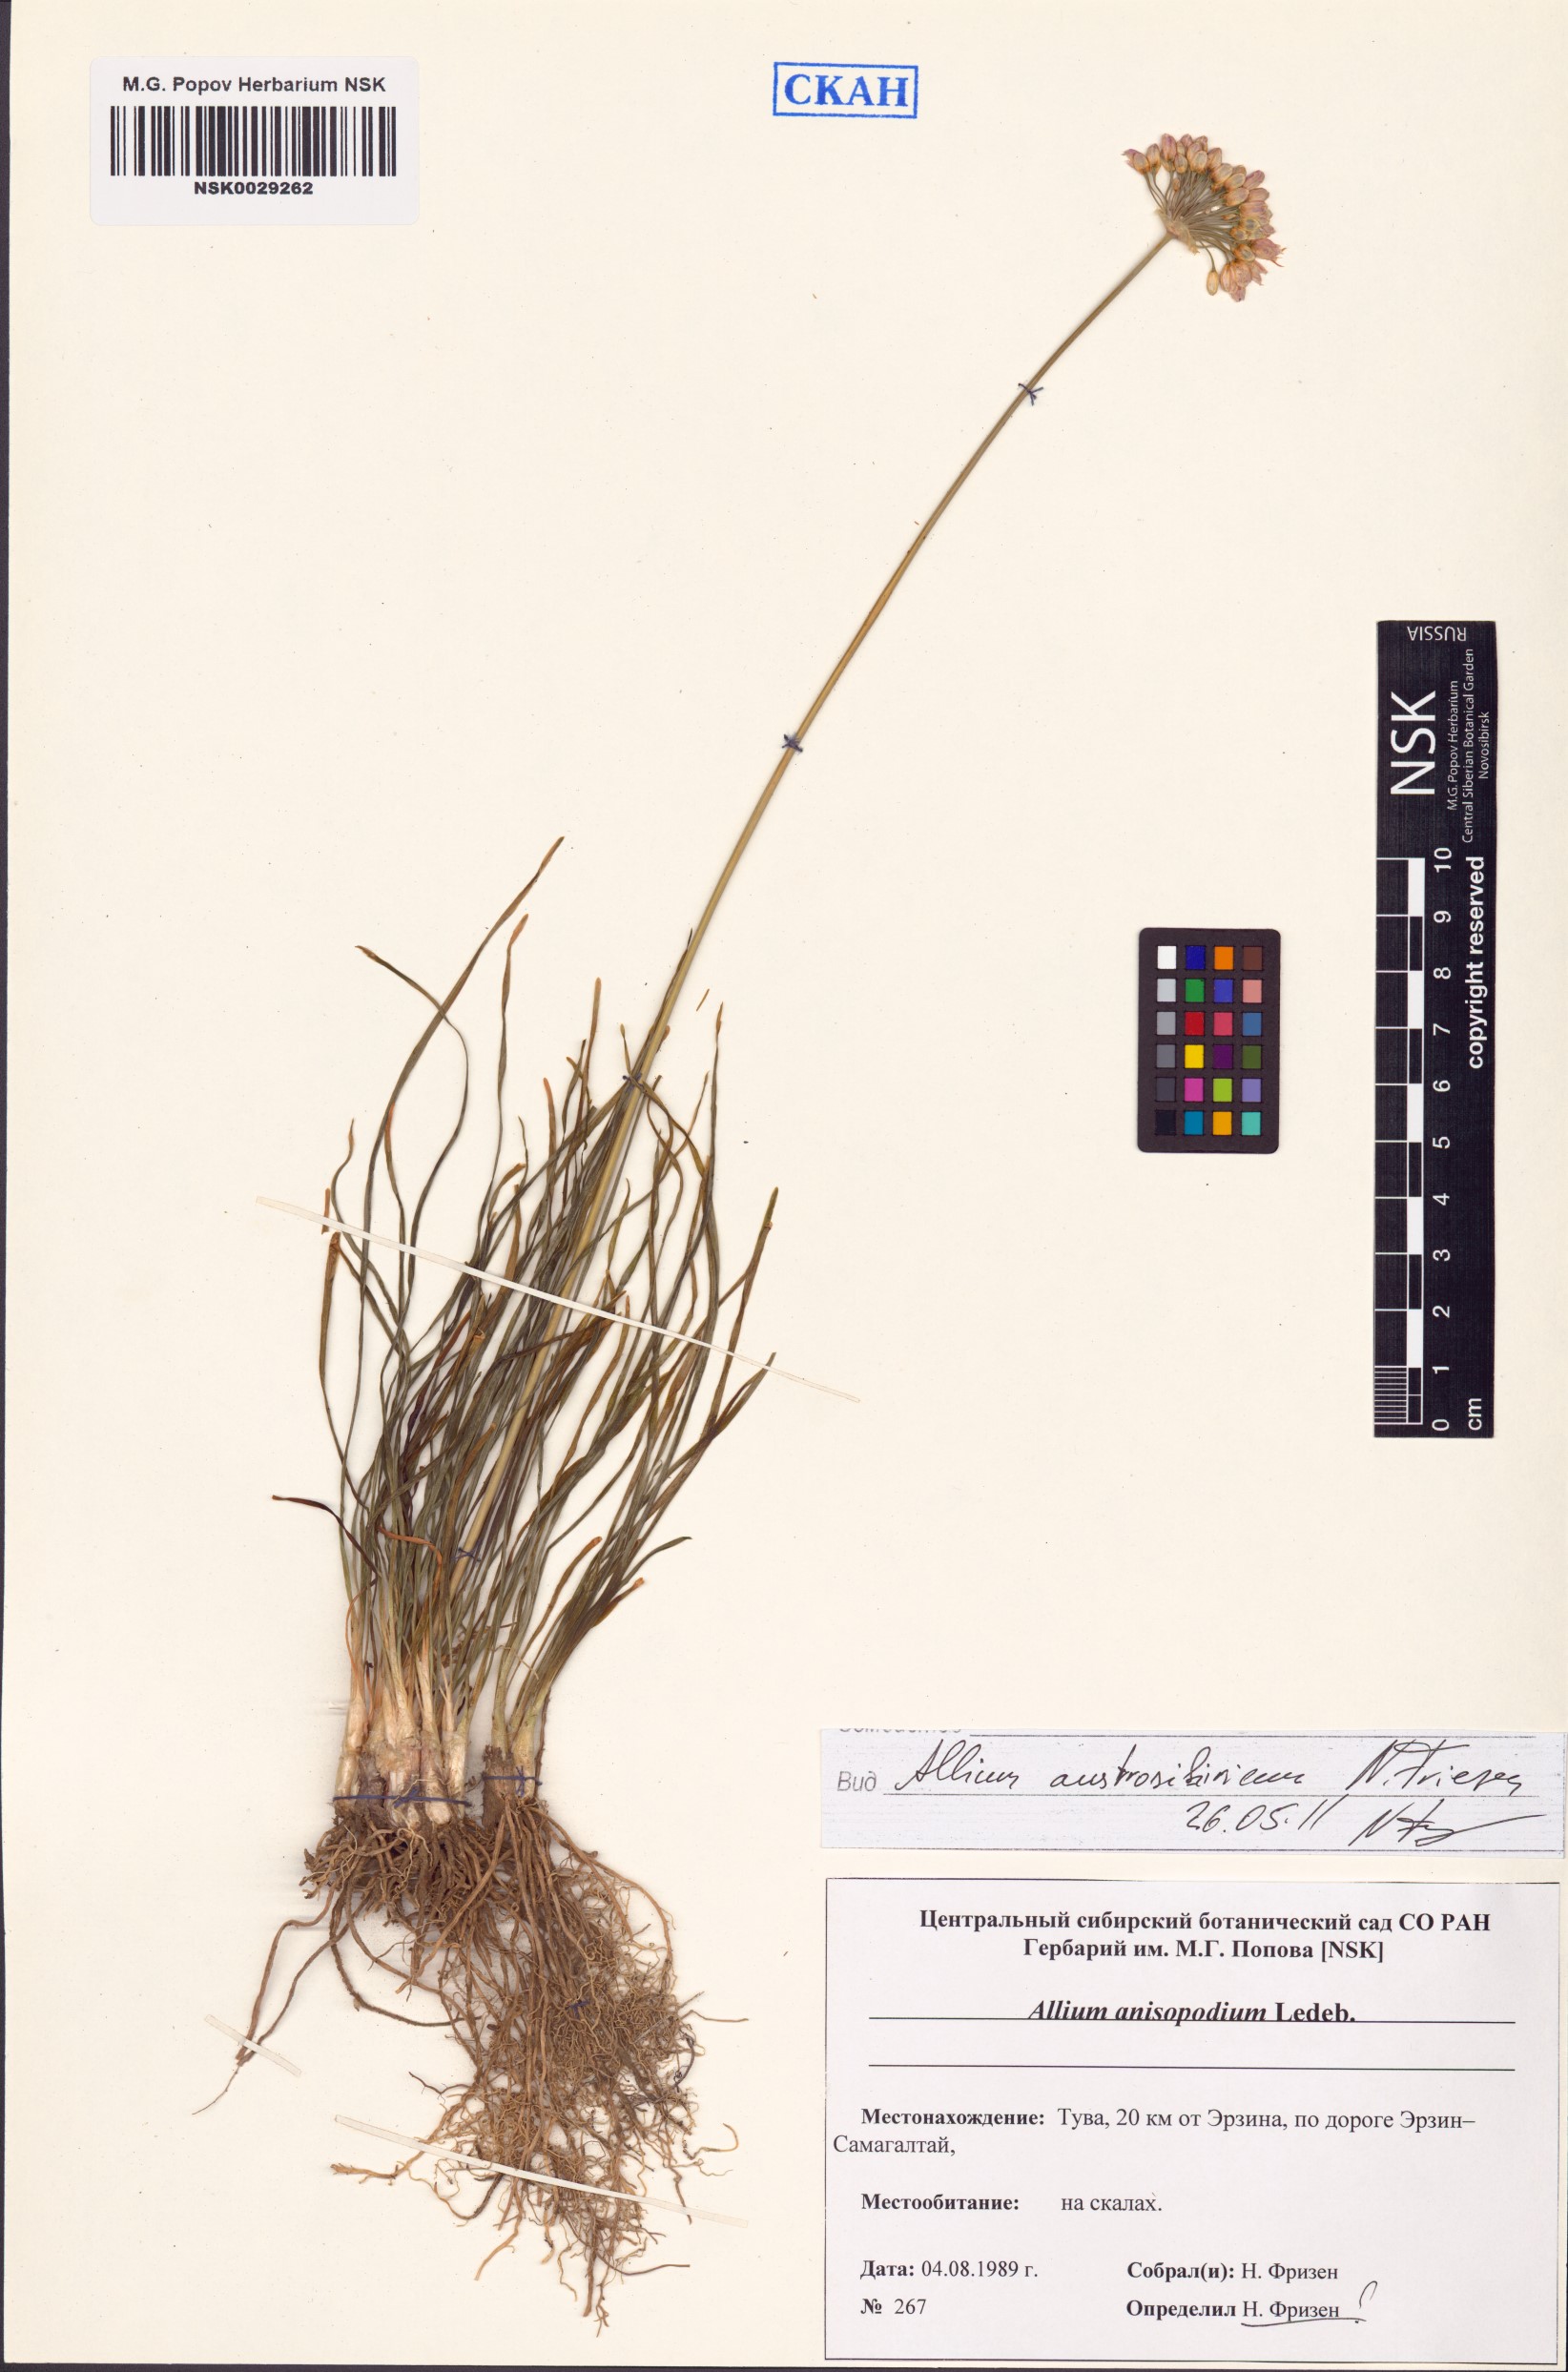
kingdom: Plantae
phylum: Tracheophyta
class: Liliopsida
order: Asparagales
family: Amaryllidaceae
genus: Allium
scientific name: Allium austrosibiricum
